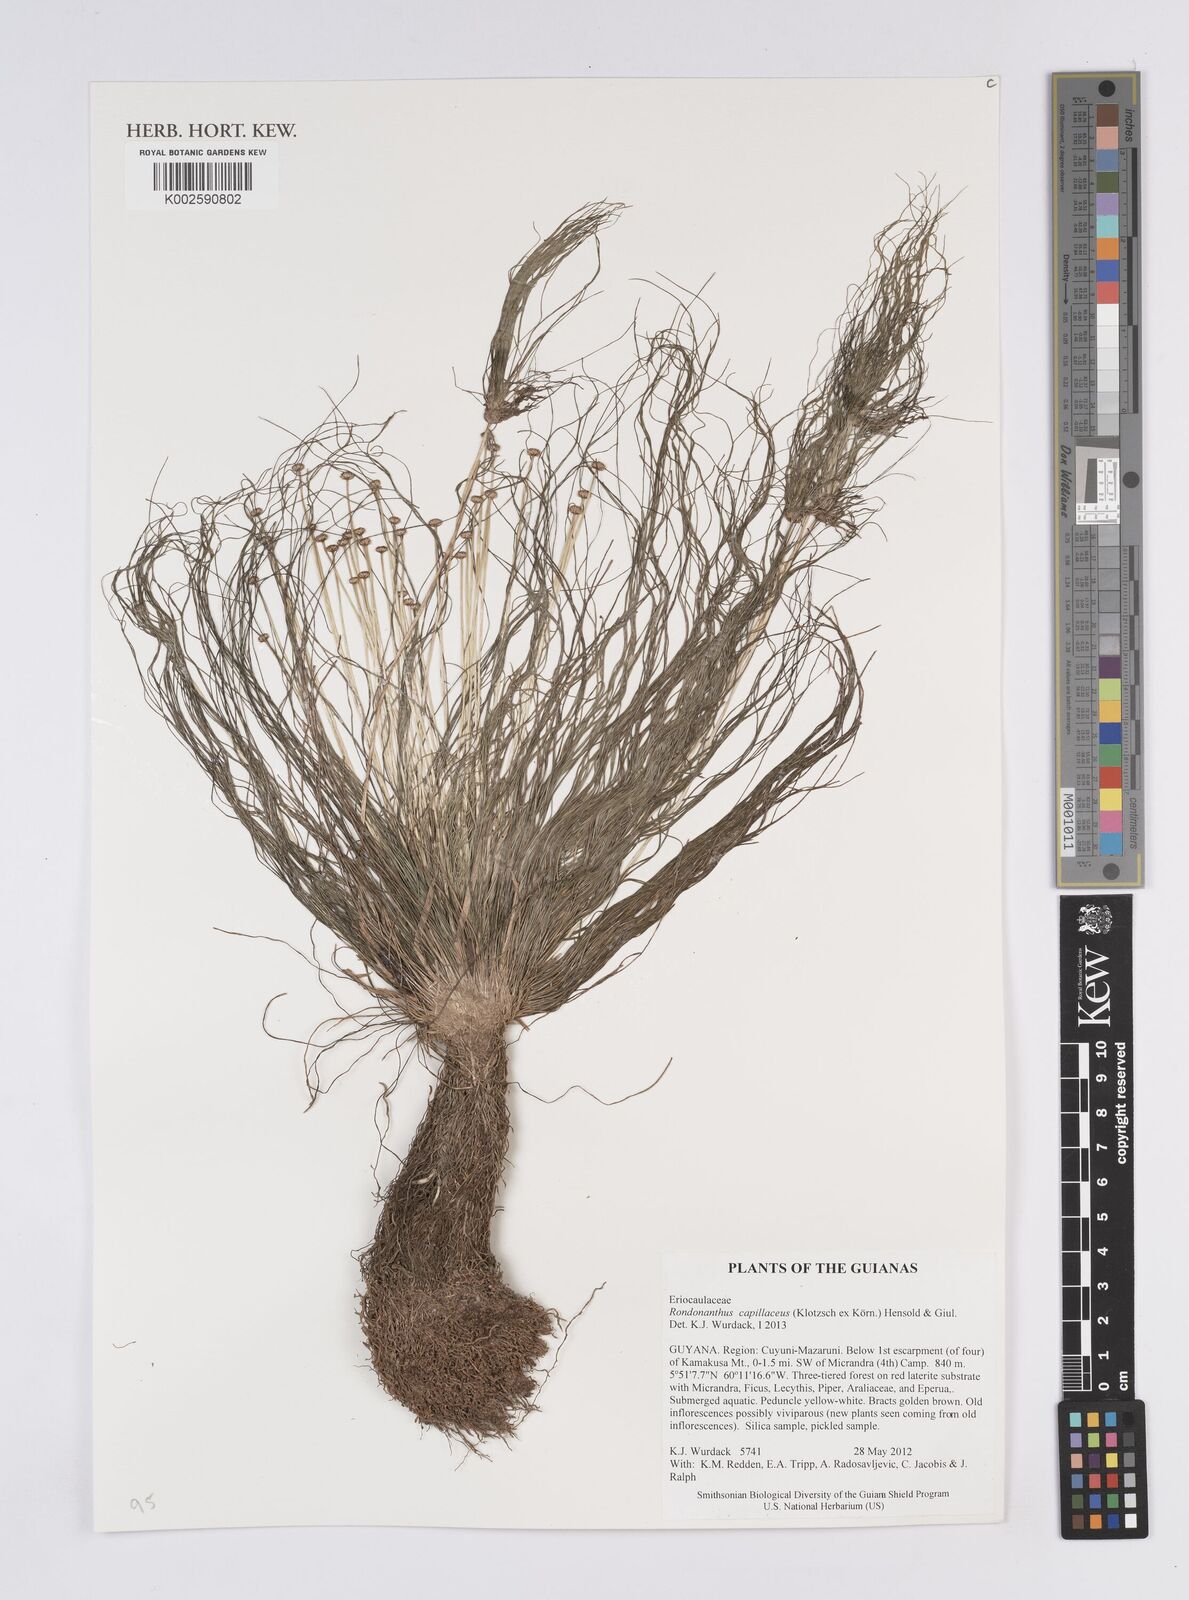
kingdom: Plantae
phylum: Tracheophyta
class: Liliopsida
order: Poales
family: Eriocaulaceae
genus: Rondonanthus
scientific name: Rondonanthus capillaceus
